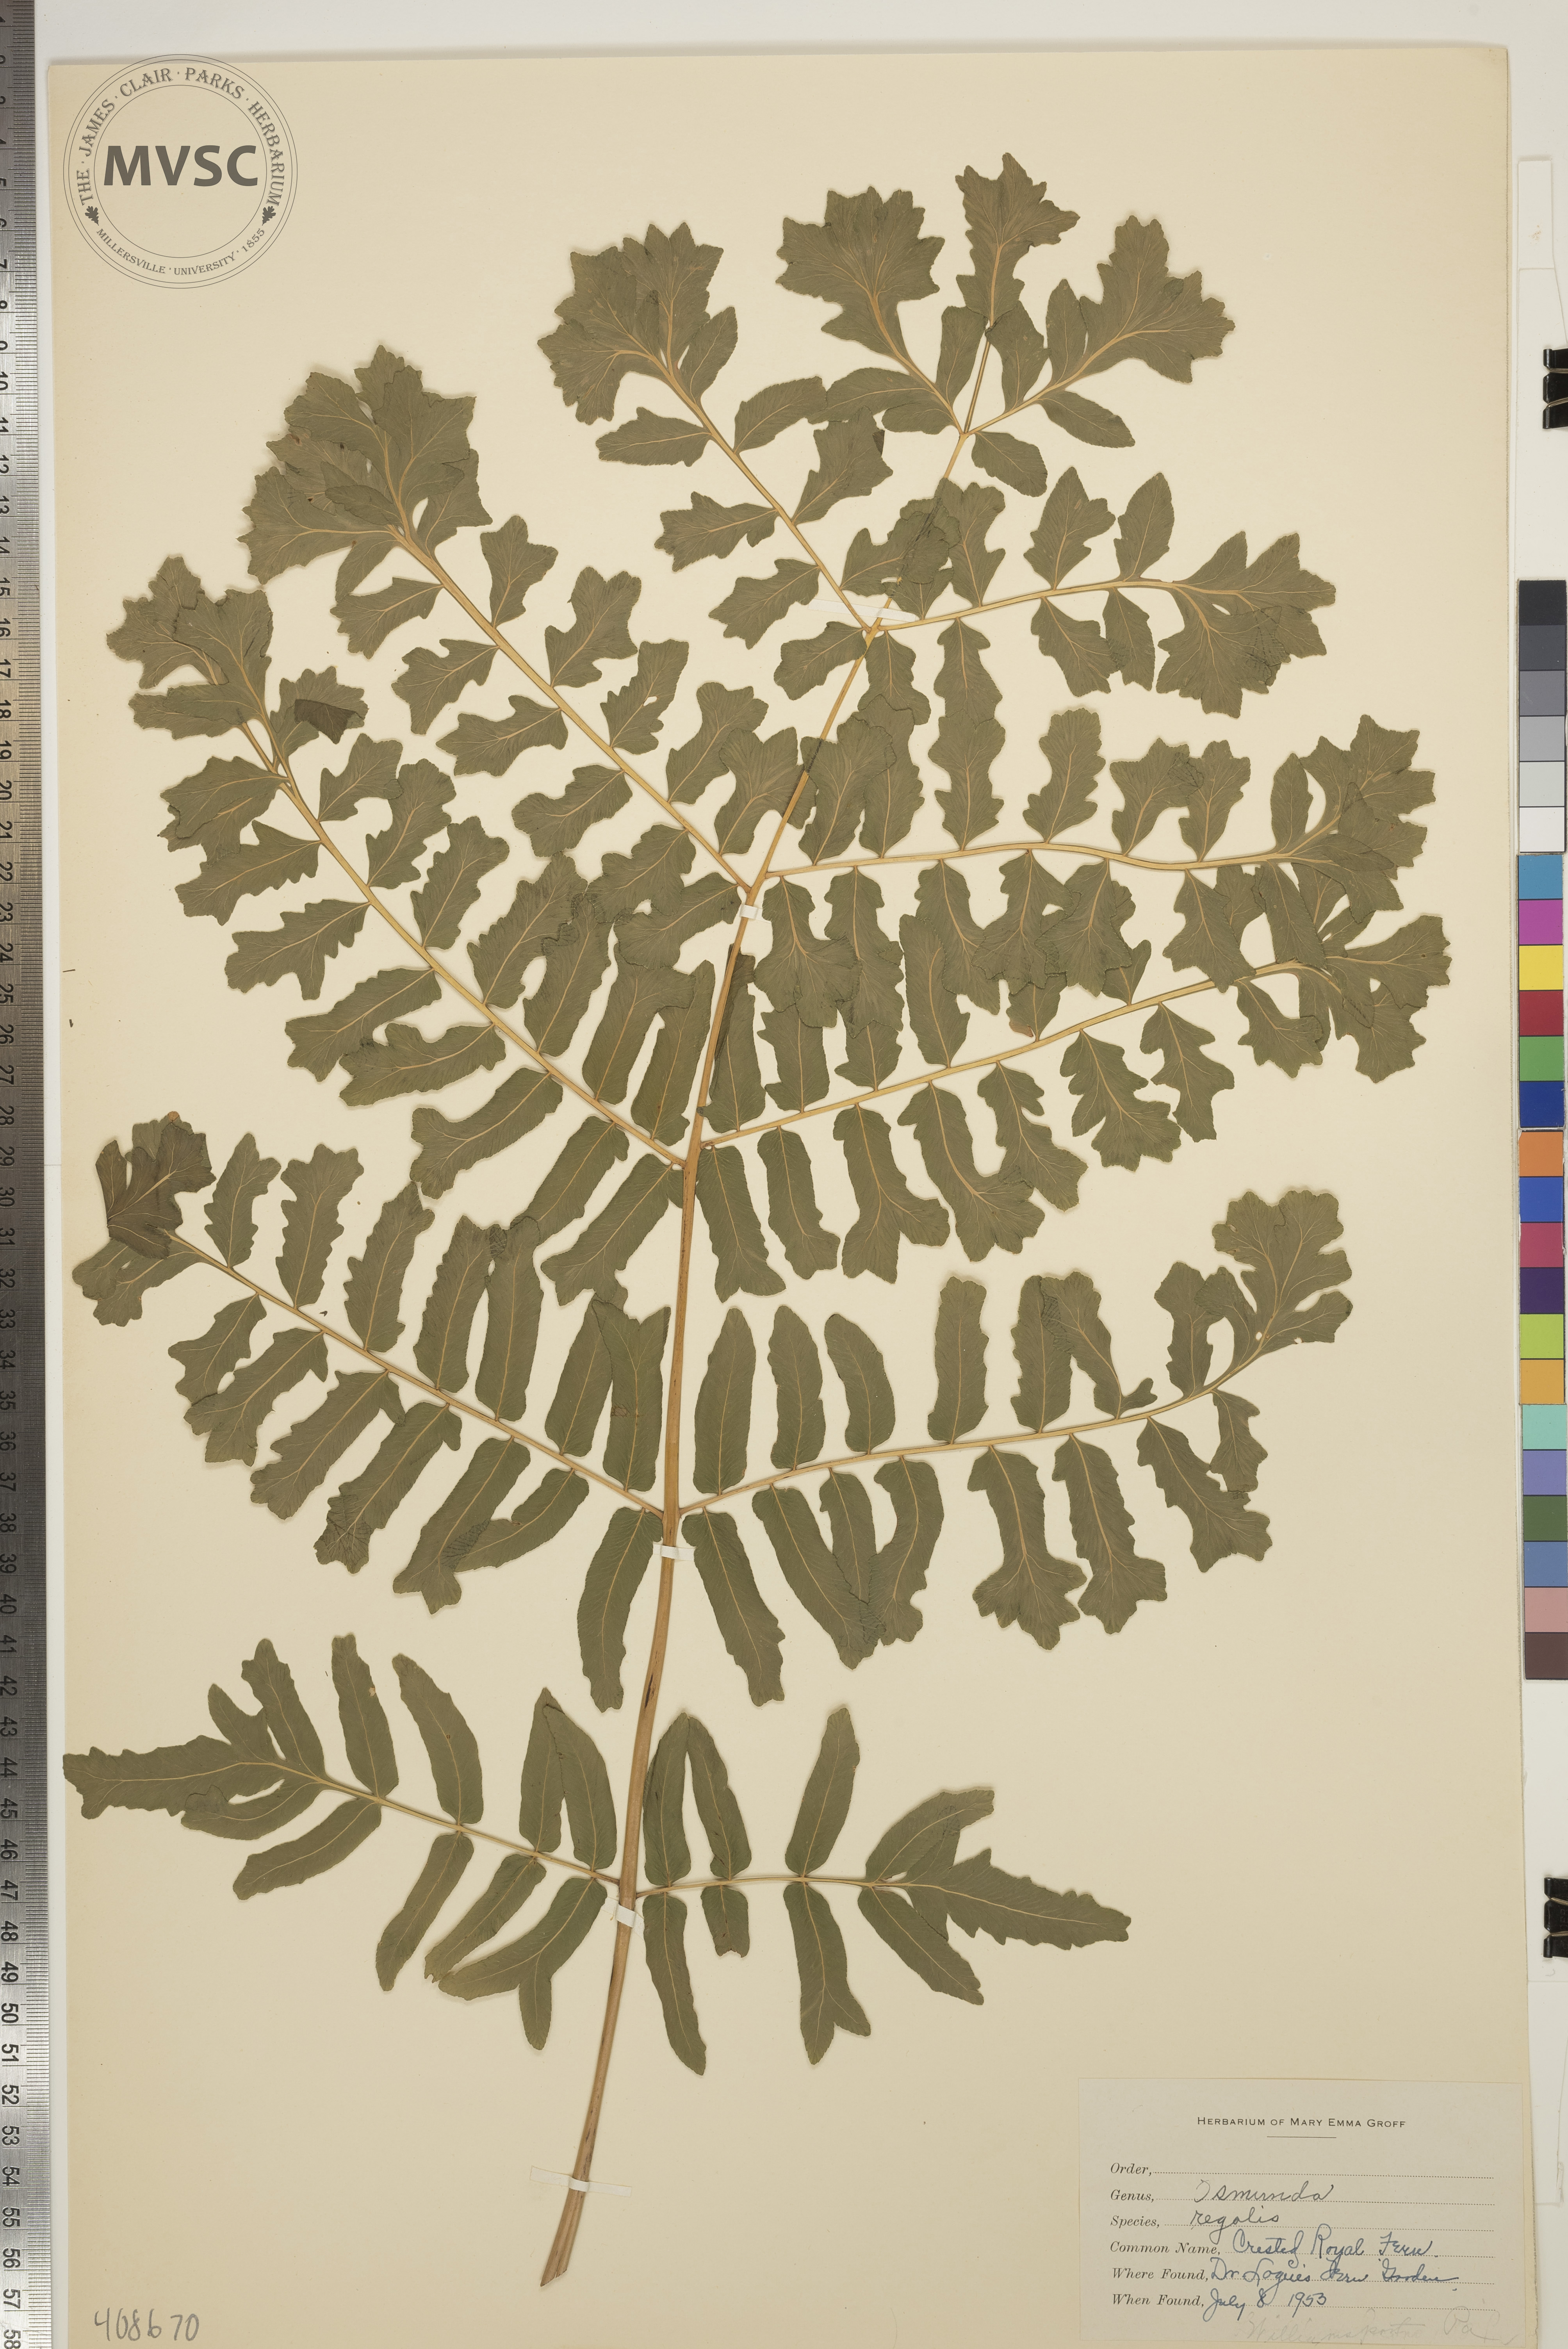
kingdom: Plantae
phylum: Tracheophyta
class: Polypodiopsida
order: Osmundales
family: Osmundaceae
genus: Osmunda
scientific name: Osmunda regalis
